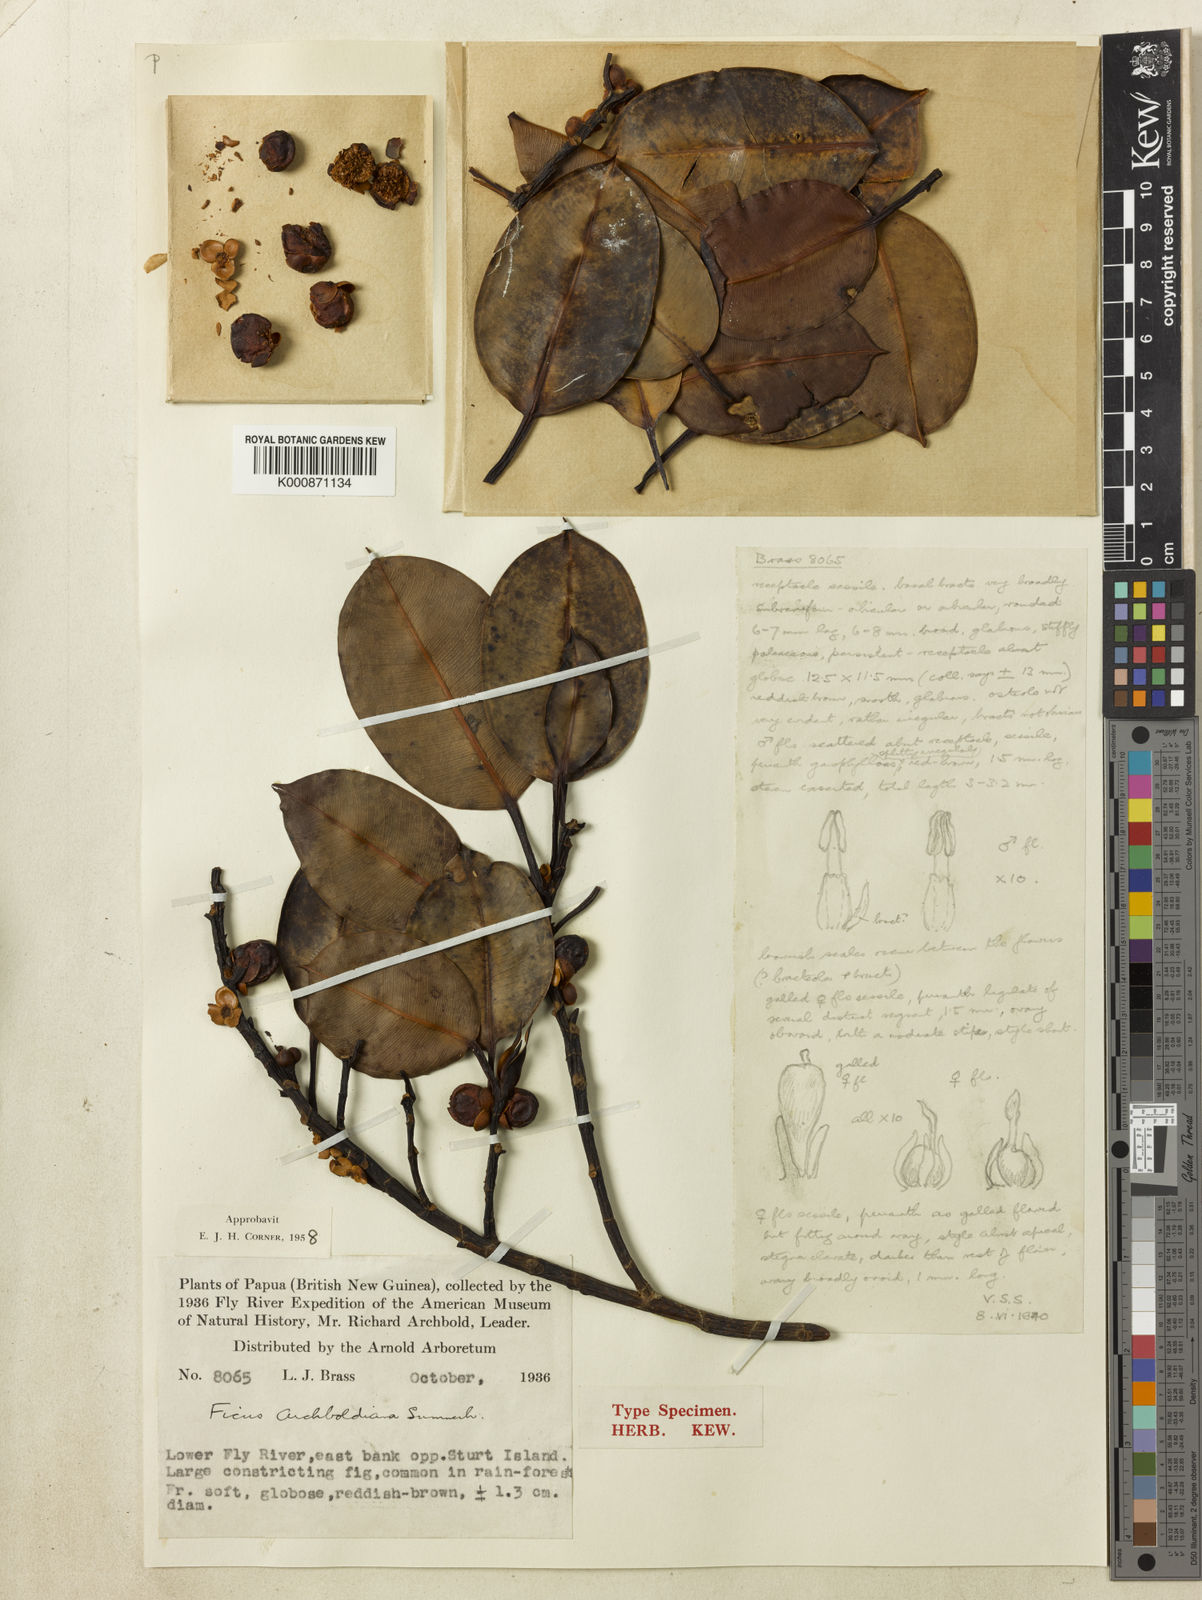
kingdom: Plantae
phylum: Tracheophyta
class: Magnoliopsida
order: Rosales
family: Moraceae
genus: Ficus
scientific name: Ficus archboldiana
